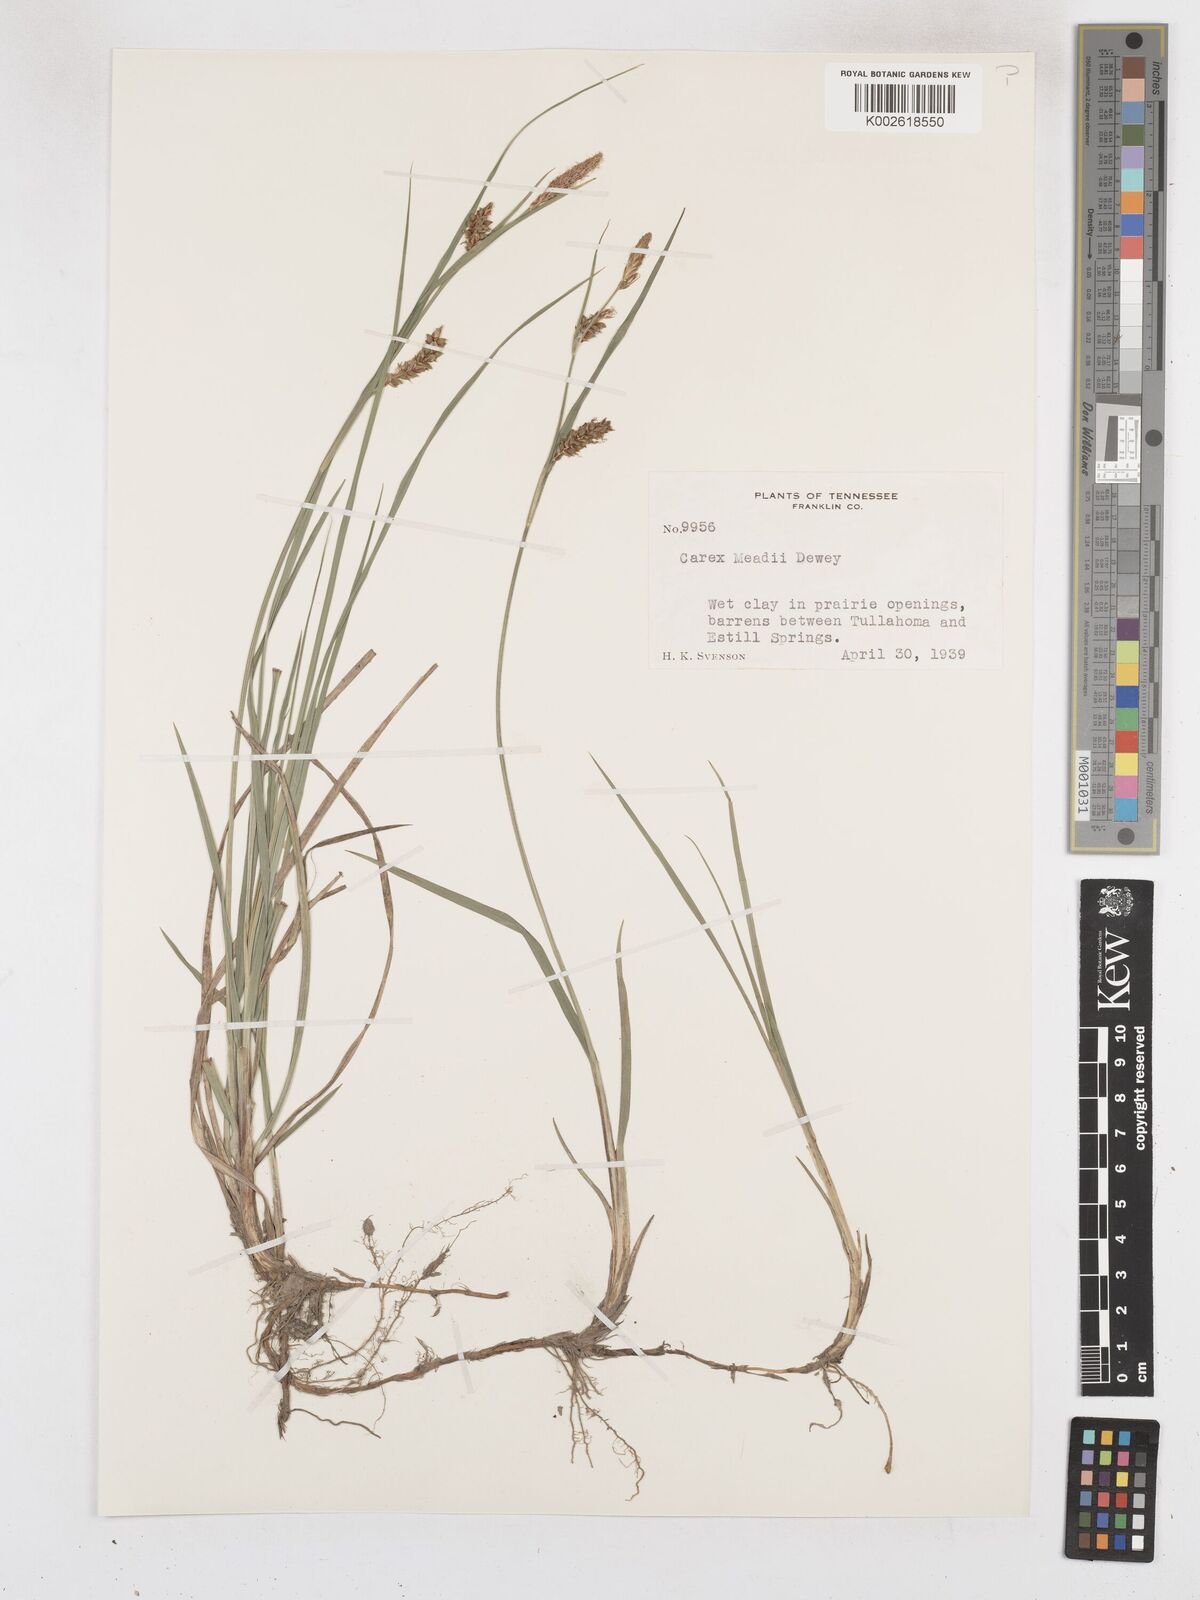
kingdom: Plantae
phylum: Tracheophyta
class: Liliopsida
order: Poales
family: Cyperaceae
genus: Carex
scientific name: Carex meadii
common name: Mead's sedge
